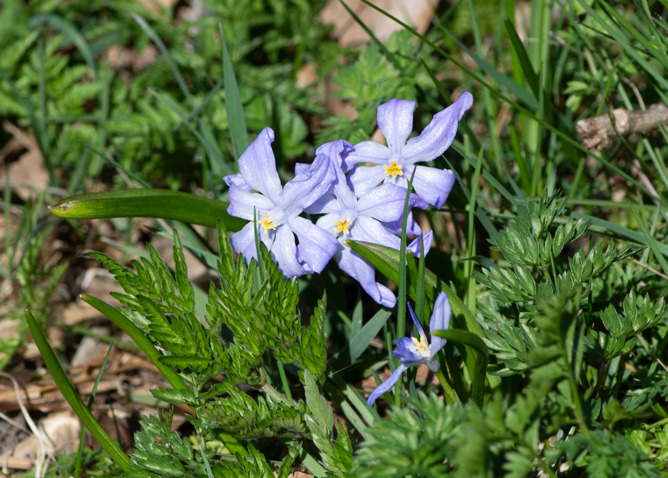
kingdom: Plantae
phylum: Tracheophyta
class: Liliopsida
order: Asparagales
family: Asparagaceae
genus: Scilla
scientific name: Scilla luciliae
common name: Stor snepryd
